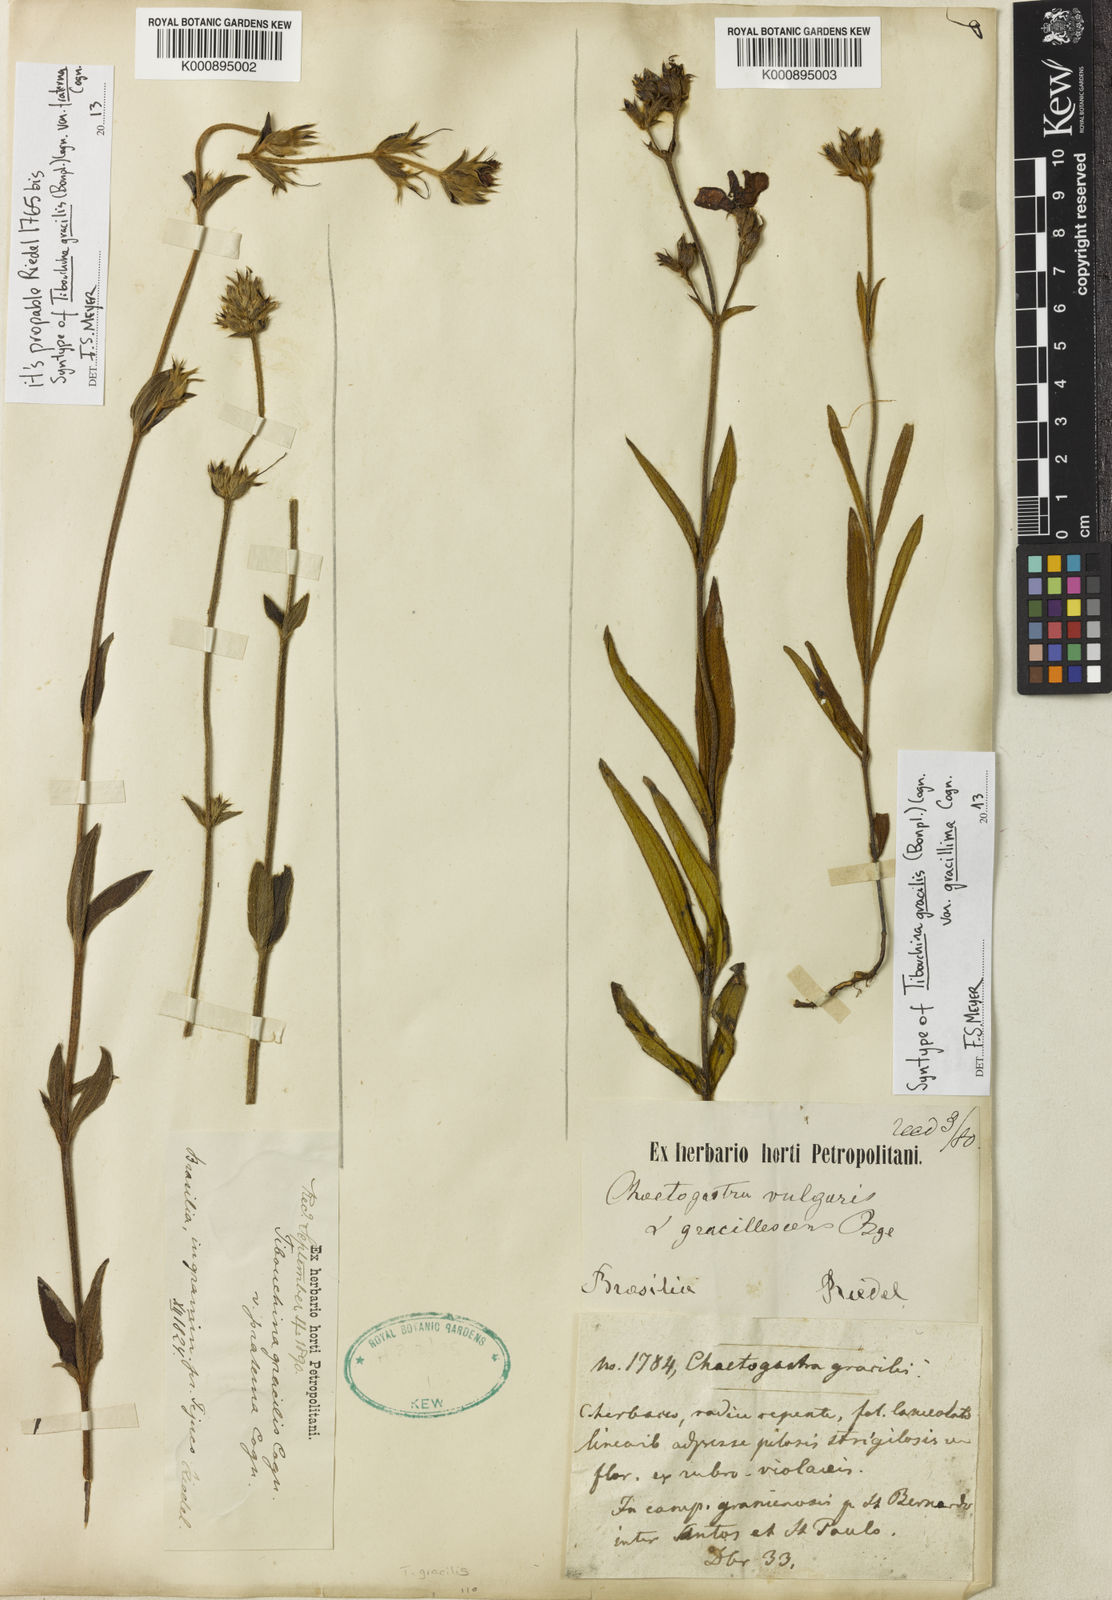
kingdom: Plantae
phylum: Tracheophyta
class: Magnoliopsida
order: Myrtales
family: Melastomataceae
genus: Chaetogastra
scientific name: Chaetogastra gracilis
